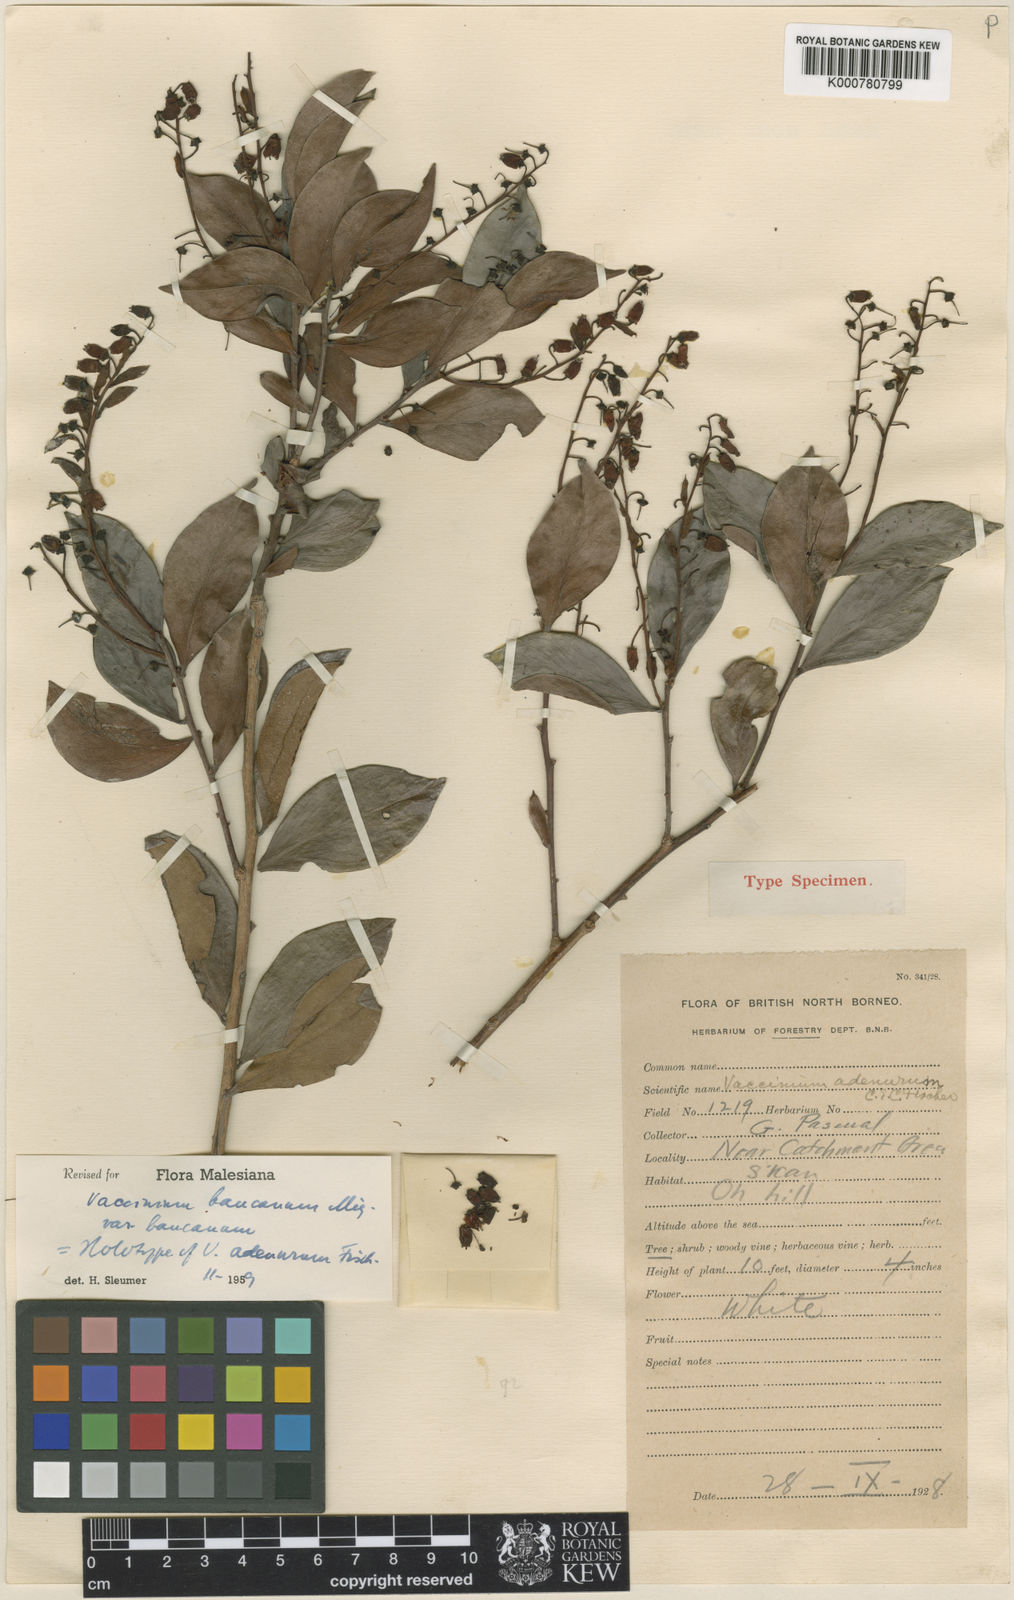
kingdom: Plantae
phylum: Tracheophyta
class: Magnoliopsida
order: Ericales
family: Ericaceae
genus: Vaccinium
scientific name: Vaccinium bancanum
